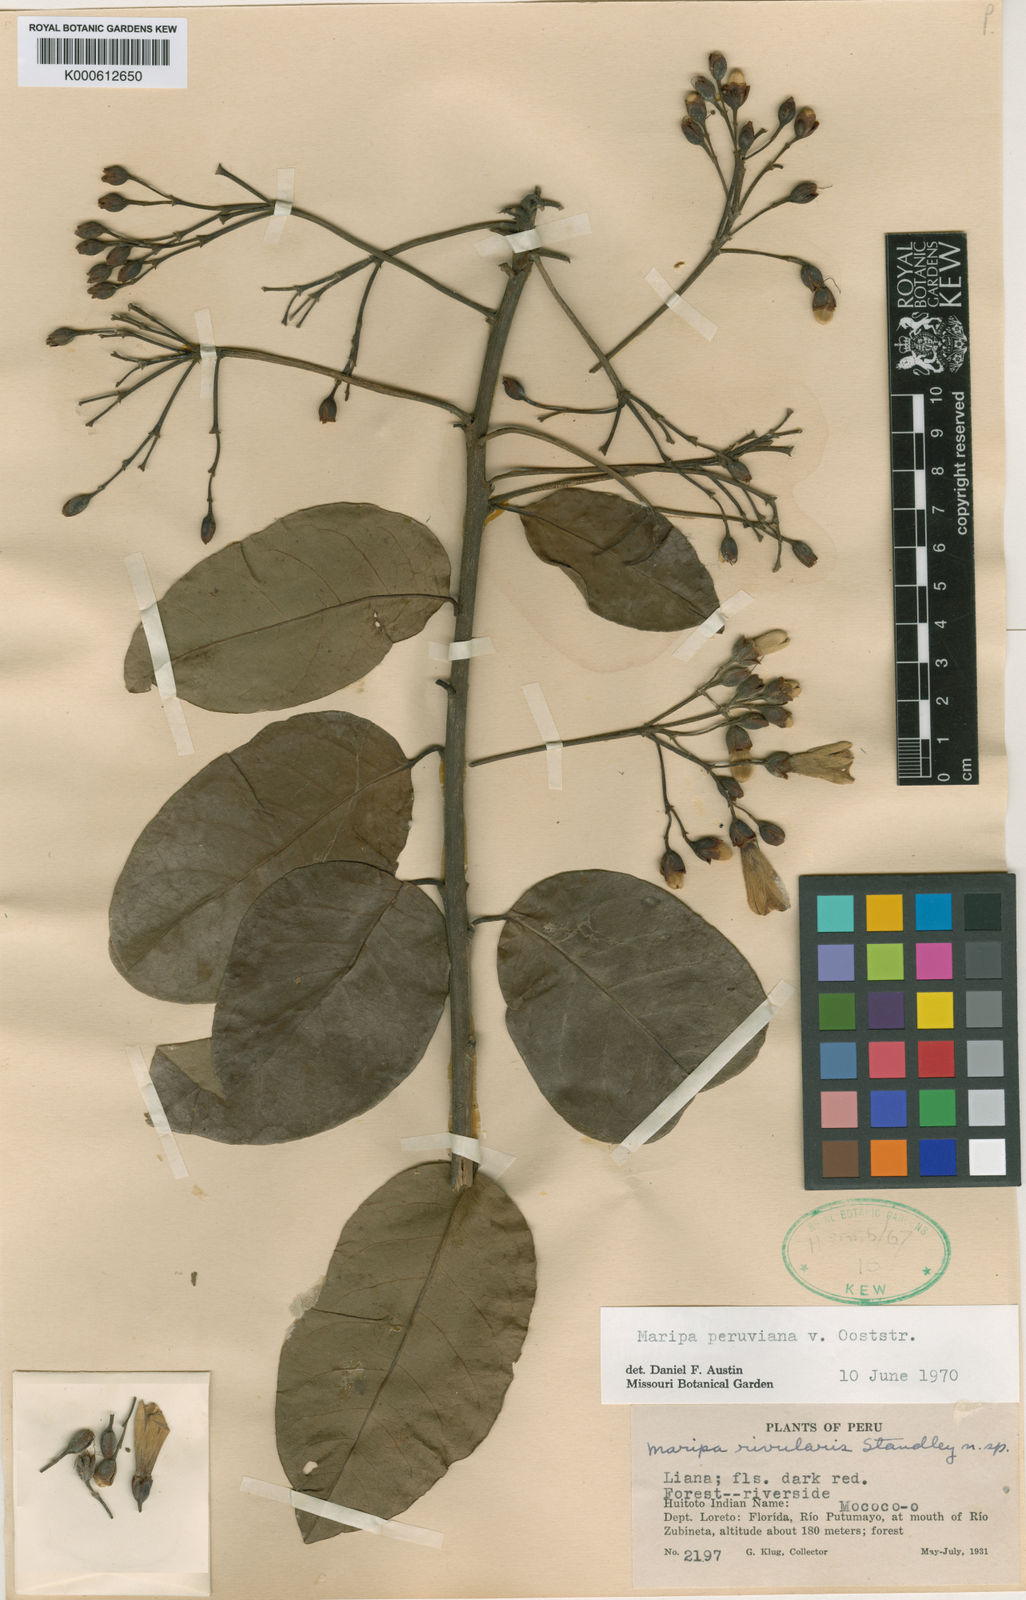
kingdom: Plantae
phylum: Tracheophyta
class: Magnoliopsida
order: Solanales
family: Convolvulaceae
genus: Maripa
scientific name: Maripa peruviana
